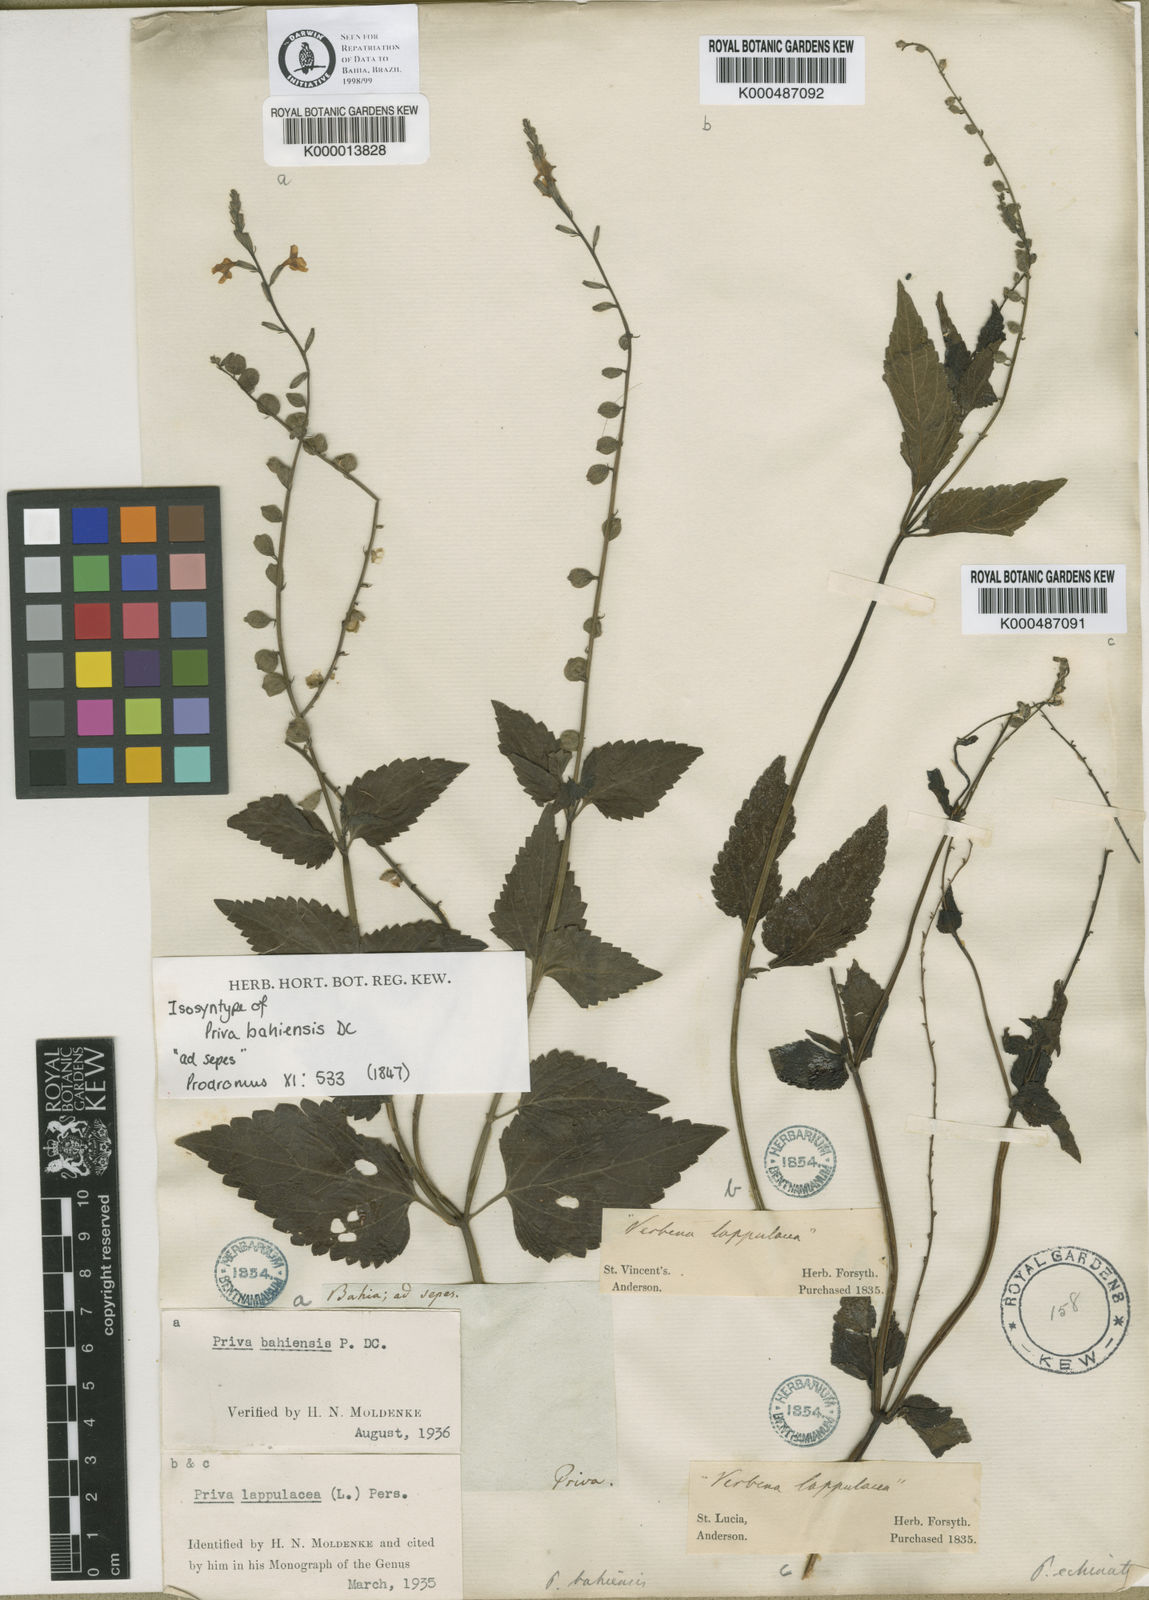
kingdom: Plantae
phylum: Tracheophyta
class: Magnoliopsida
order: Lamiales
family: Verbenaceae
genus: Priva
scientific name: Priva bahiensis
